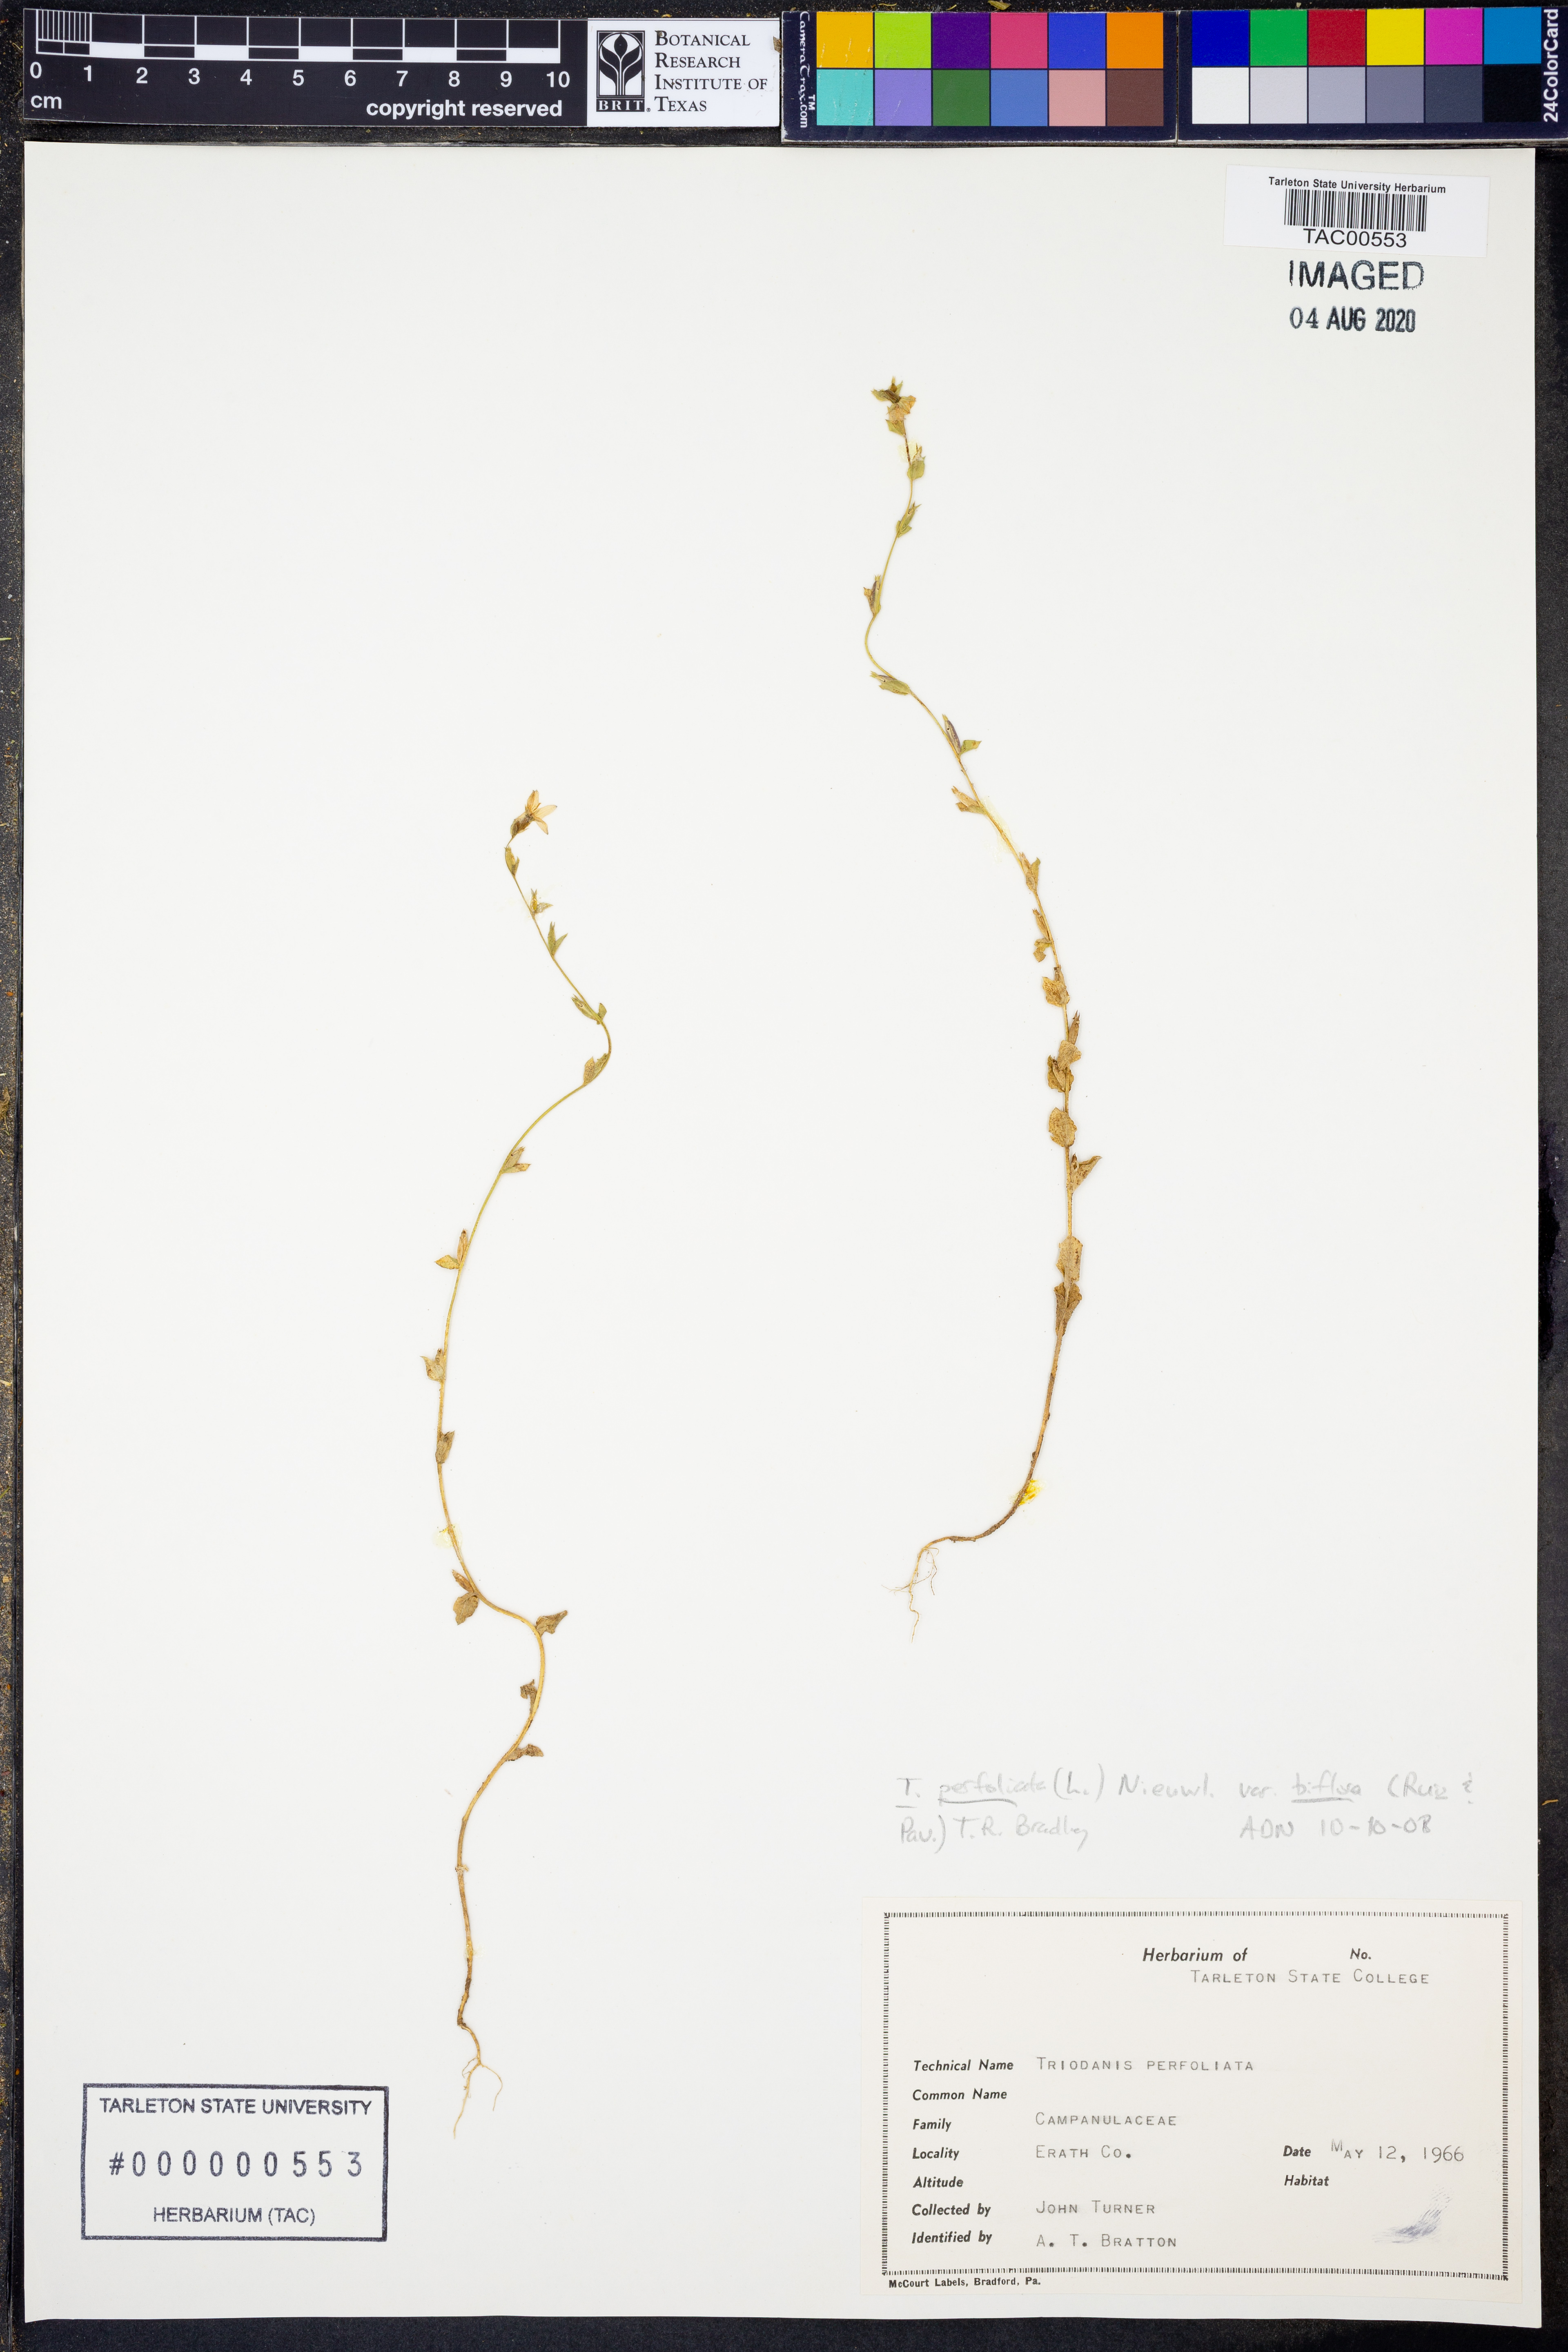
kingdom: Plantae
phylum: Tracheophyta
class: Magnoliopsida
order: Asterales
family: Campanulaceae
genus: Triodanis
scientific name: Triodanis perfoliata
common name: Clasping venus' looking-glass
